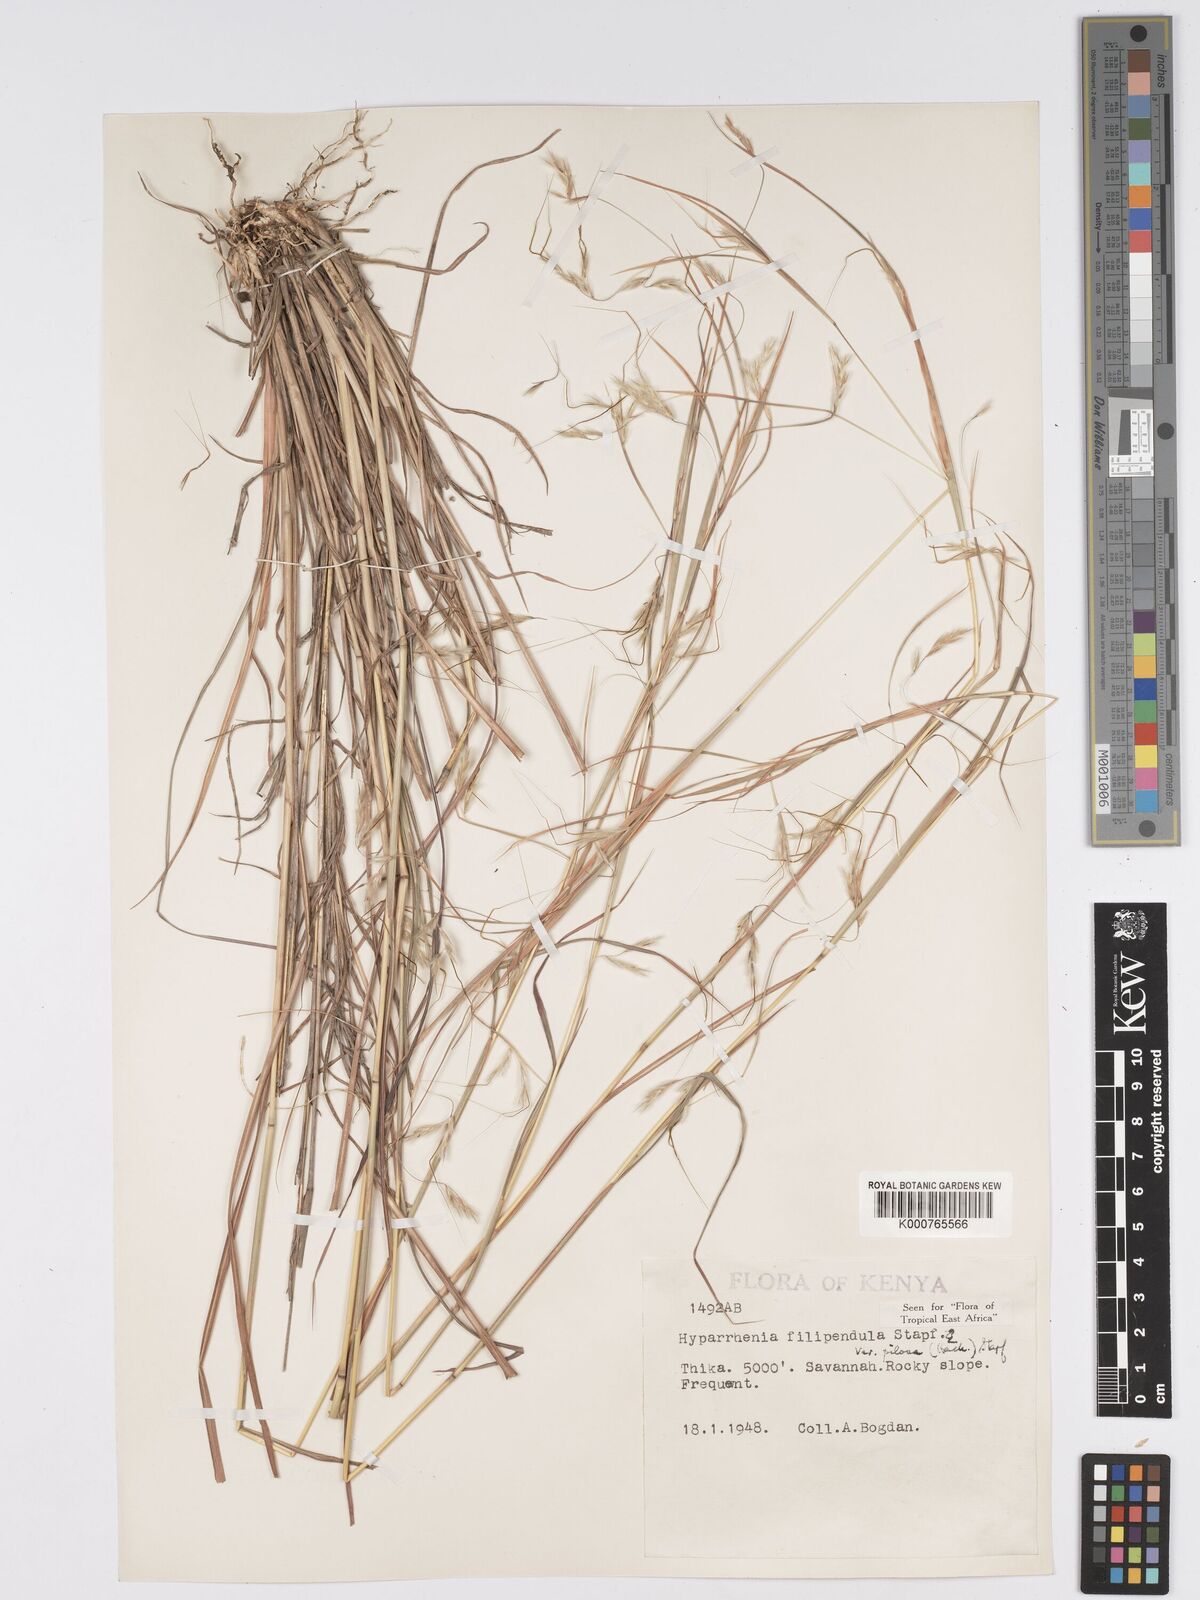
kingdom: Plantae
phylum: Tracheophyta
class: Liliopsida
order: Poales
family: Poaceae
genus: Hyparrhenia
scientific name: Hyparrhenia filipendula
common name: Tambookie grass
